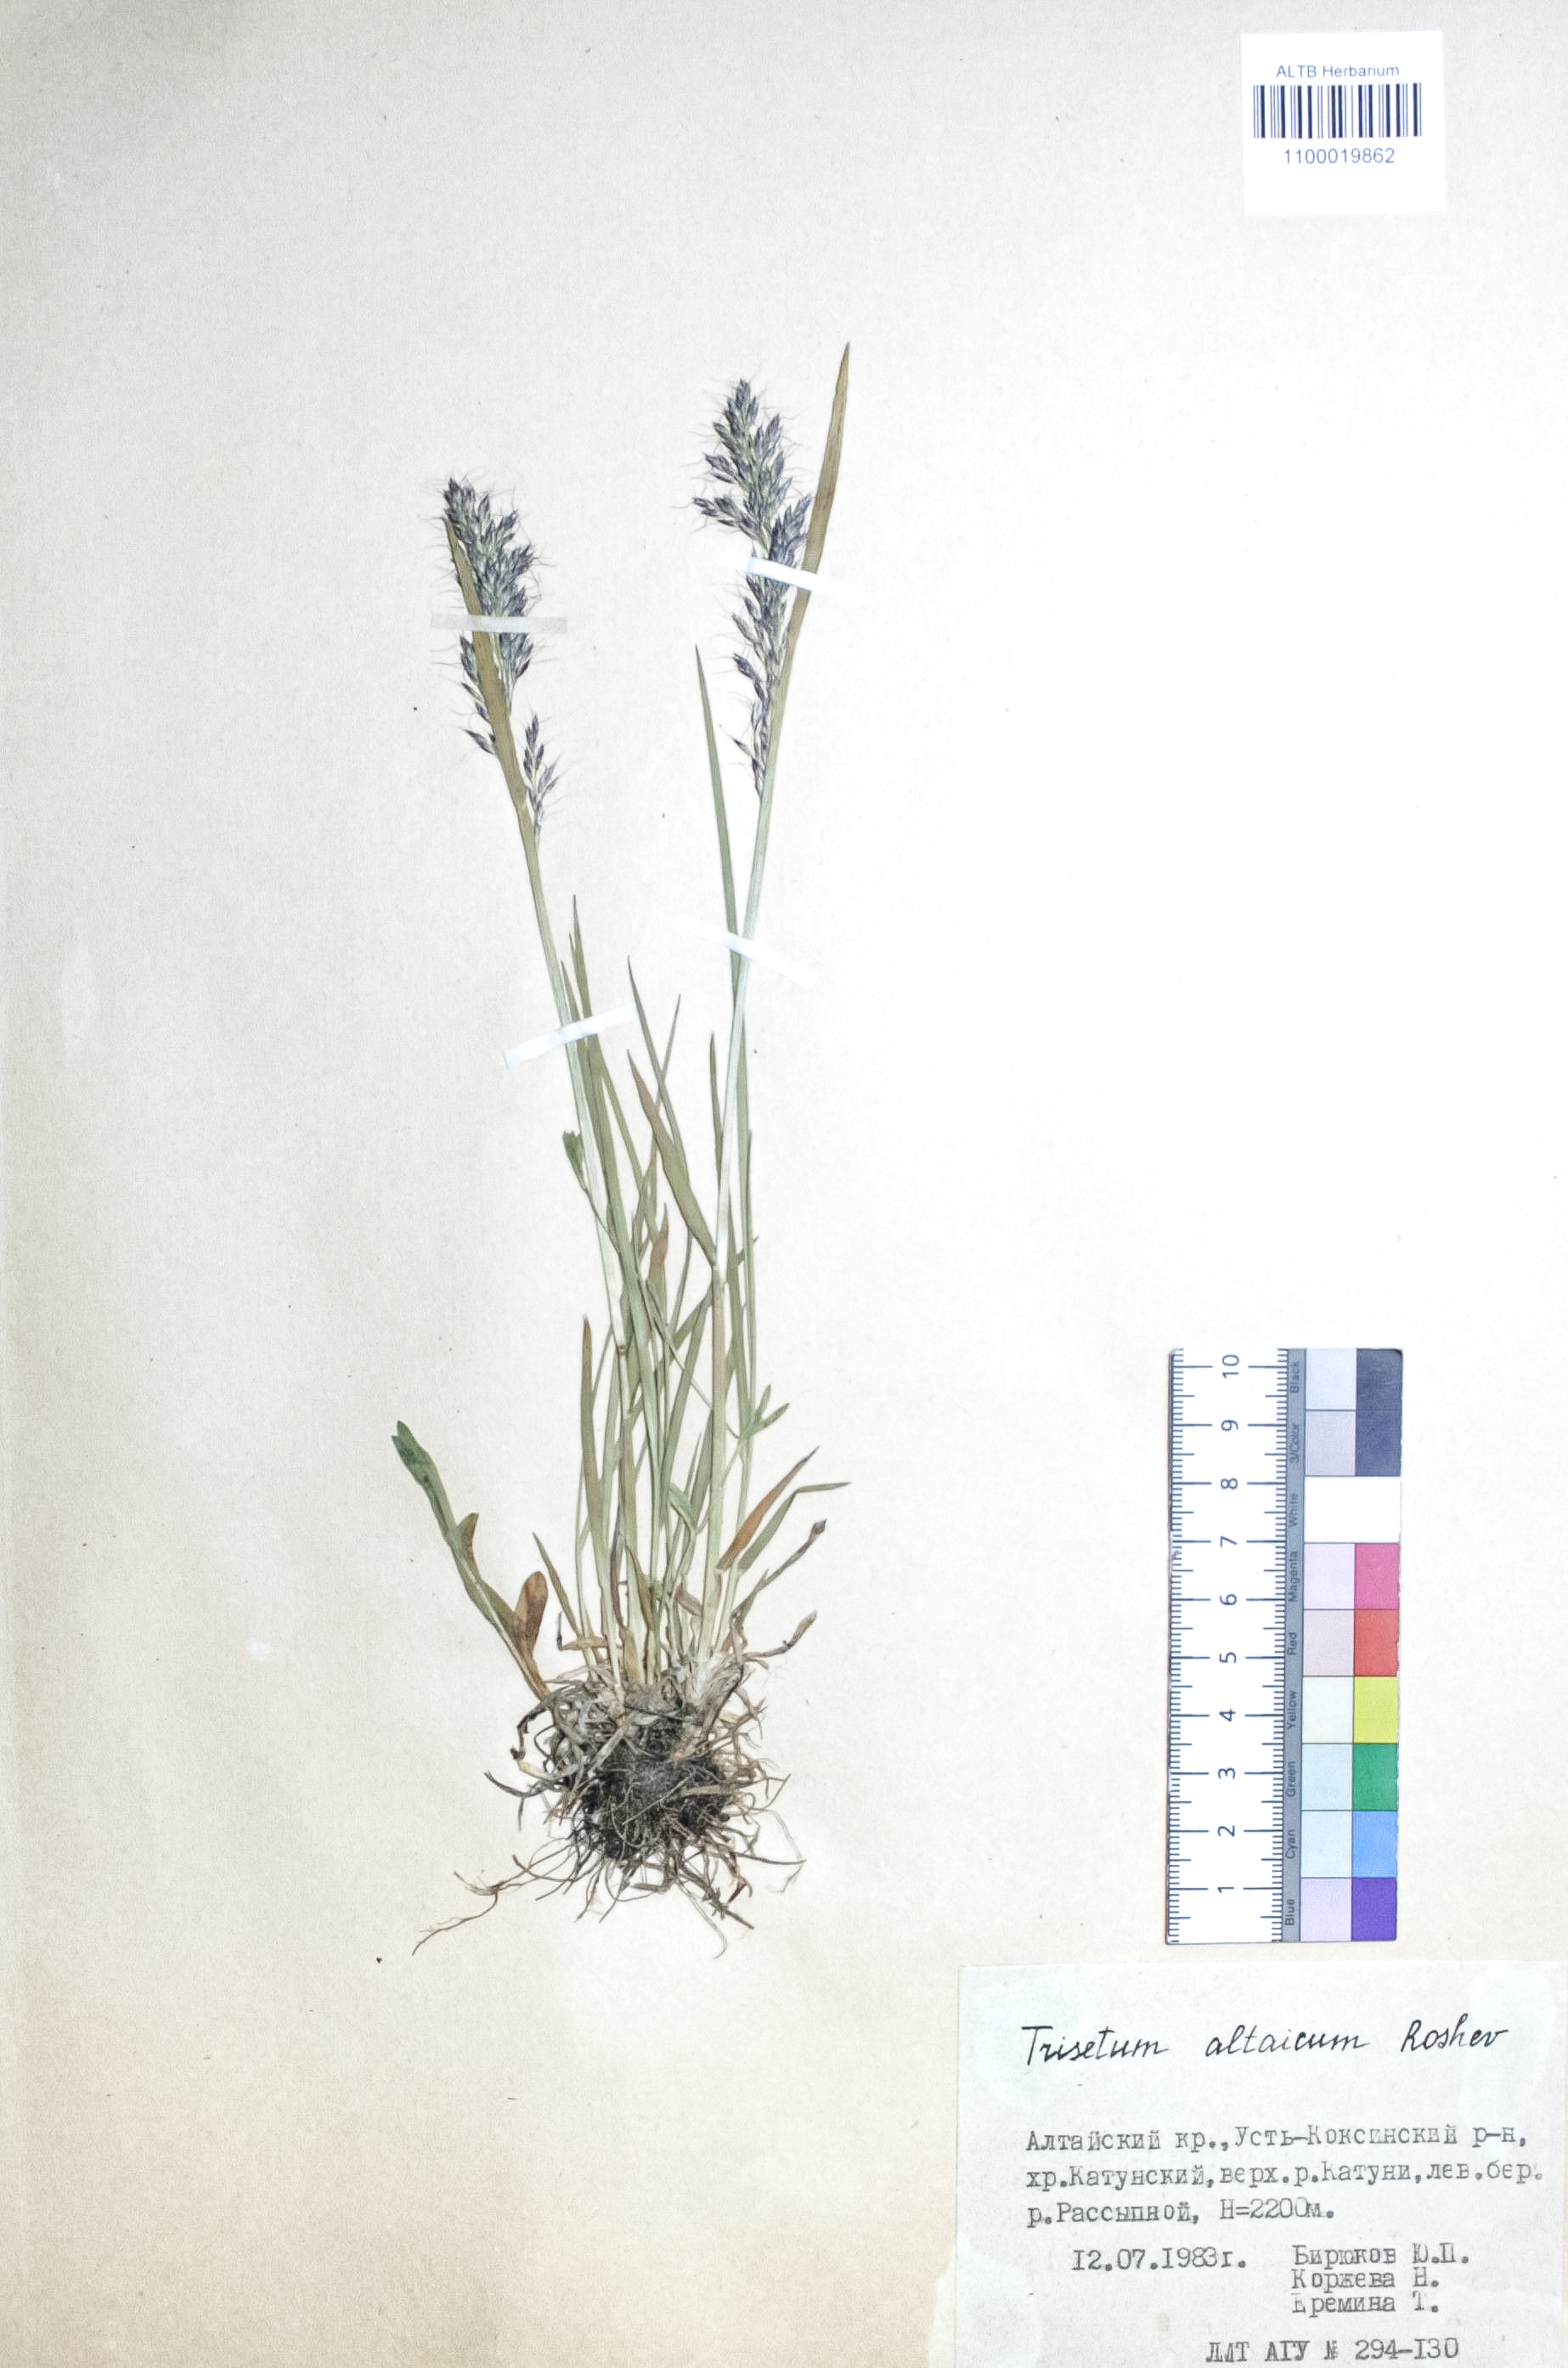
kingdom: Plantae
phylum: Tracheophyta
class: Liliopsida
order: Poales
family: Poaceae
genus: Trisetum
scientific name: Trisetum altaicum
